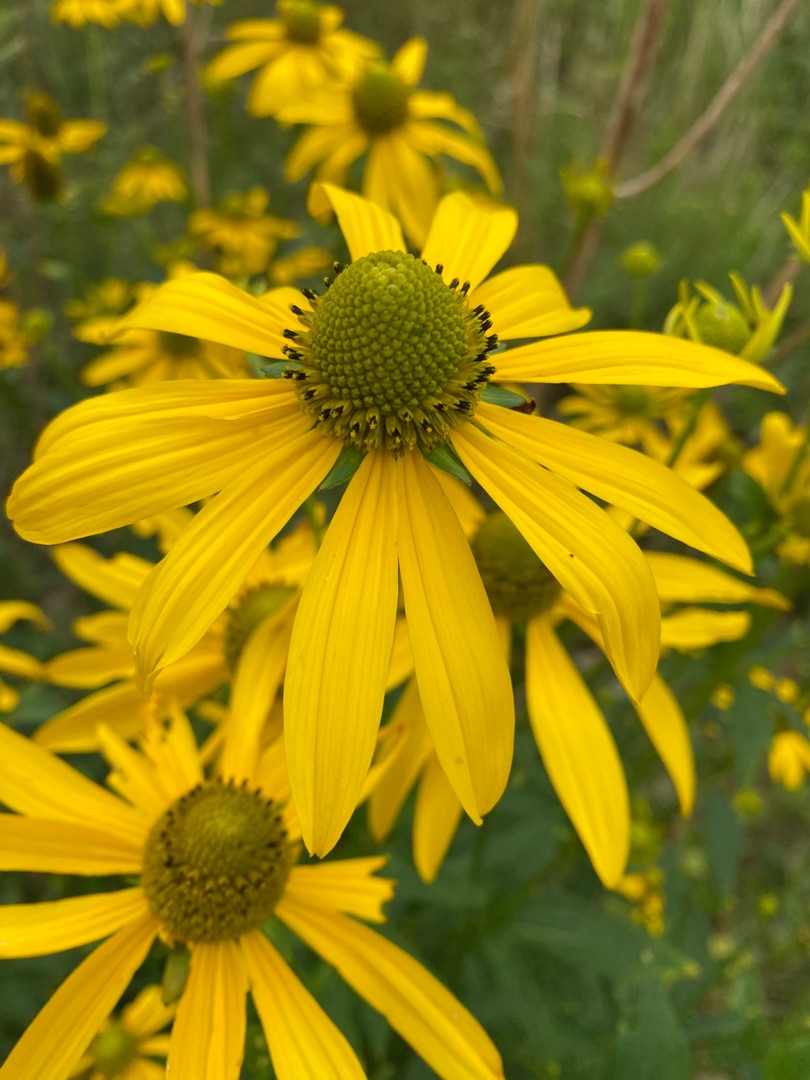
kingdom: Plantae
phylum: Tracheophyta
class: Magnoliopsida
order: Asterales
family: Asteraceae
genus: Rudbeckia
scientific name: Rudbeckia laciniata
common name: Fliget solhat
